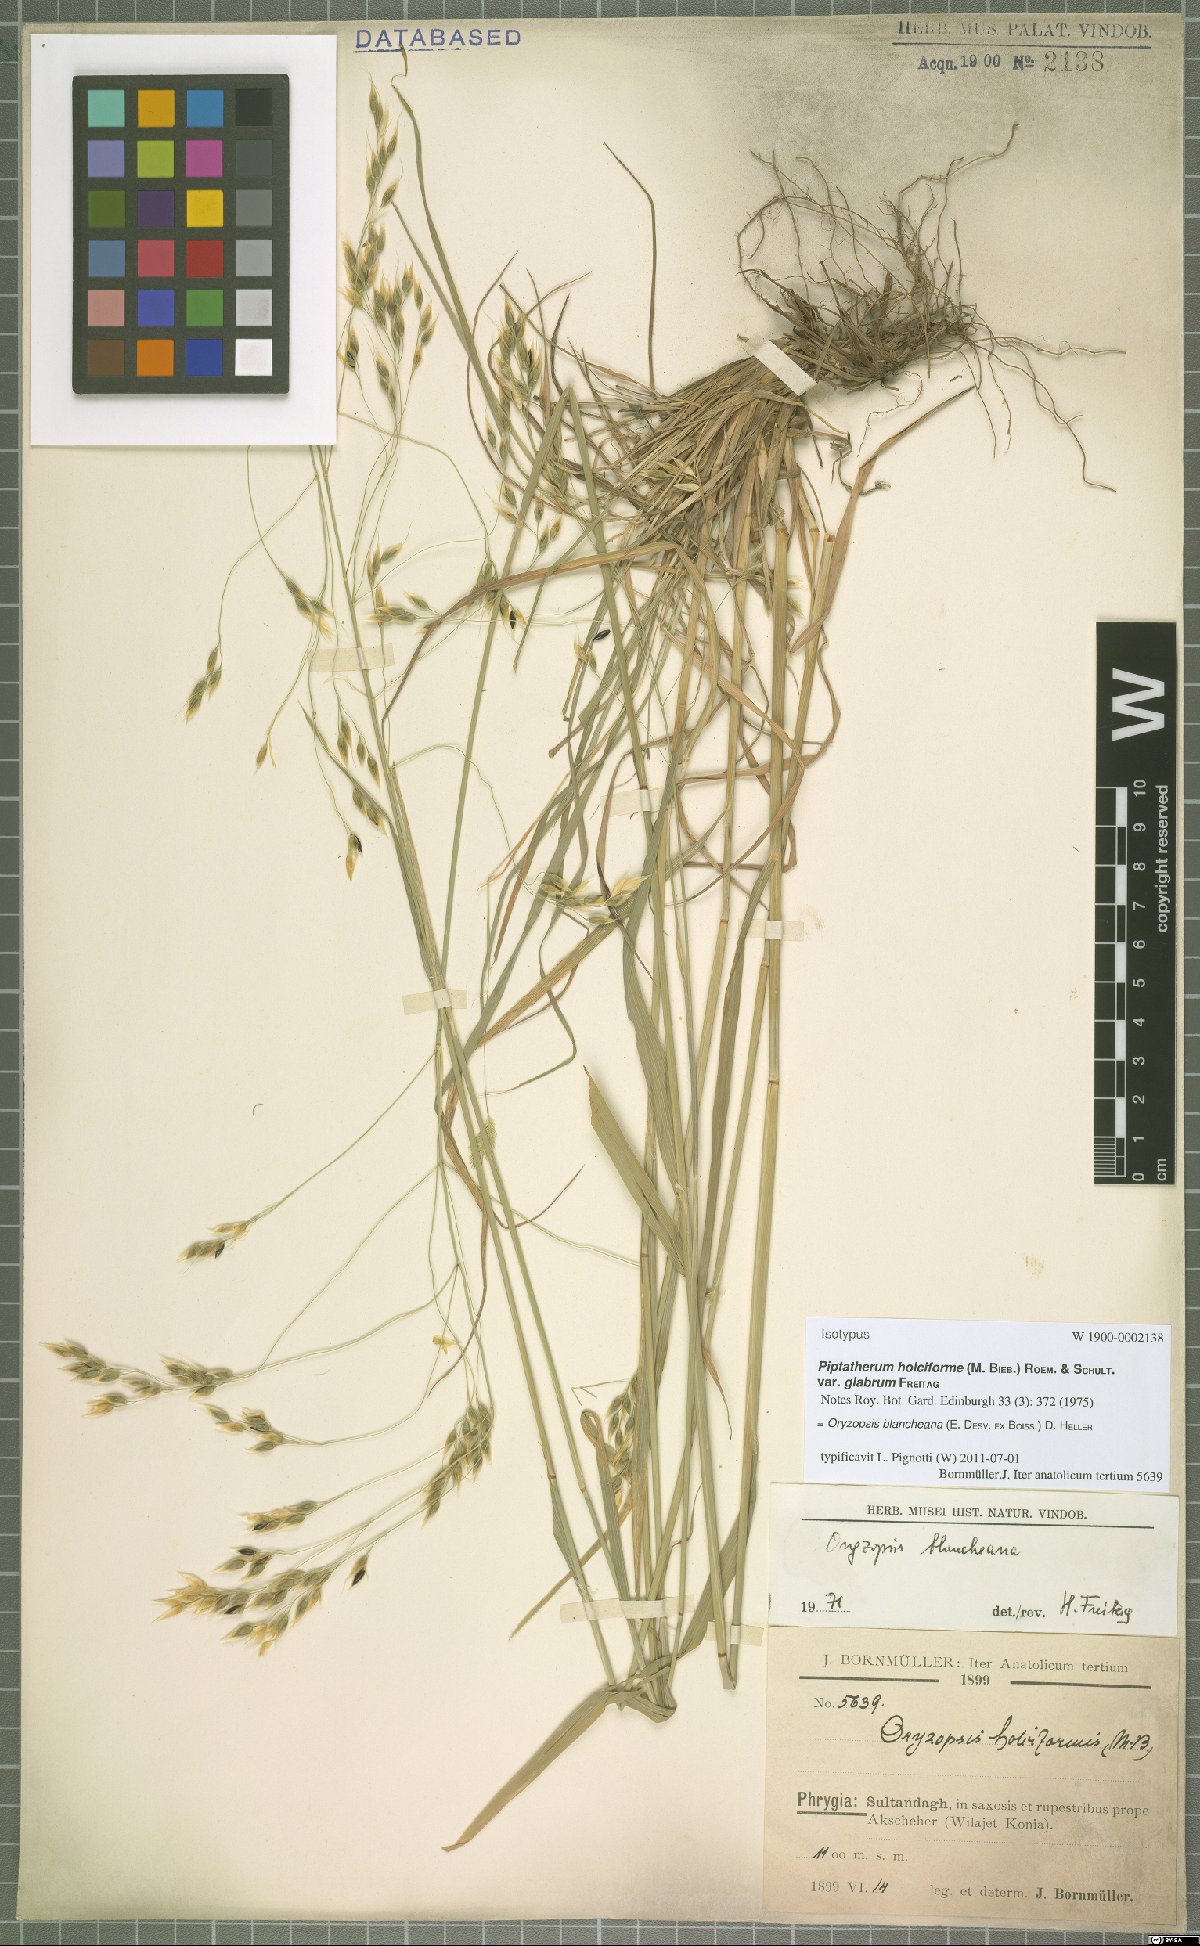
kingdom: Plantae
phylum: Tracheophyta
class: Liliopsida
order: Poales
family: Poaceae
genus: Piptatherum
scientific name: Piptatherum blancheanum
